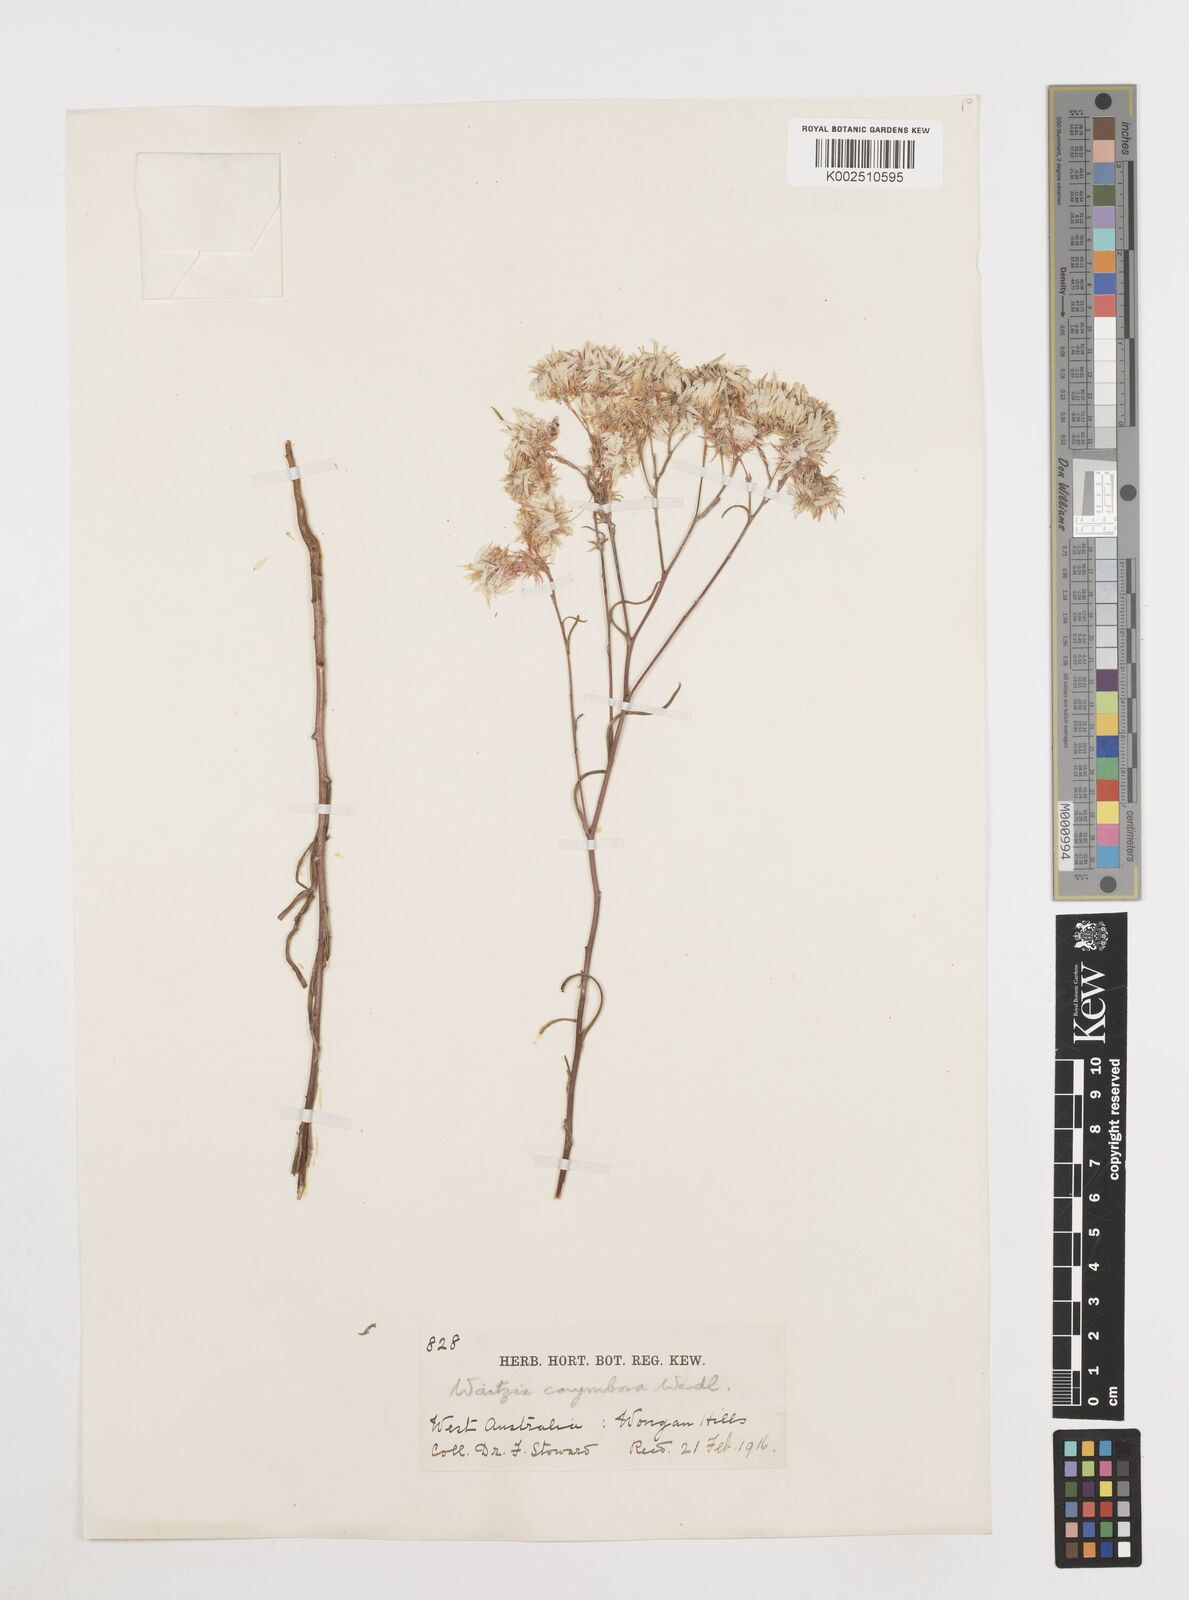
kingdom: Plantae
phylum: Tracheophyta
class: Magnoliopsida
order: Asterales
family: Asteraceae
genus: Waitzia
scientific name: Waitzia acuminata
